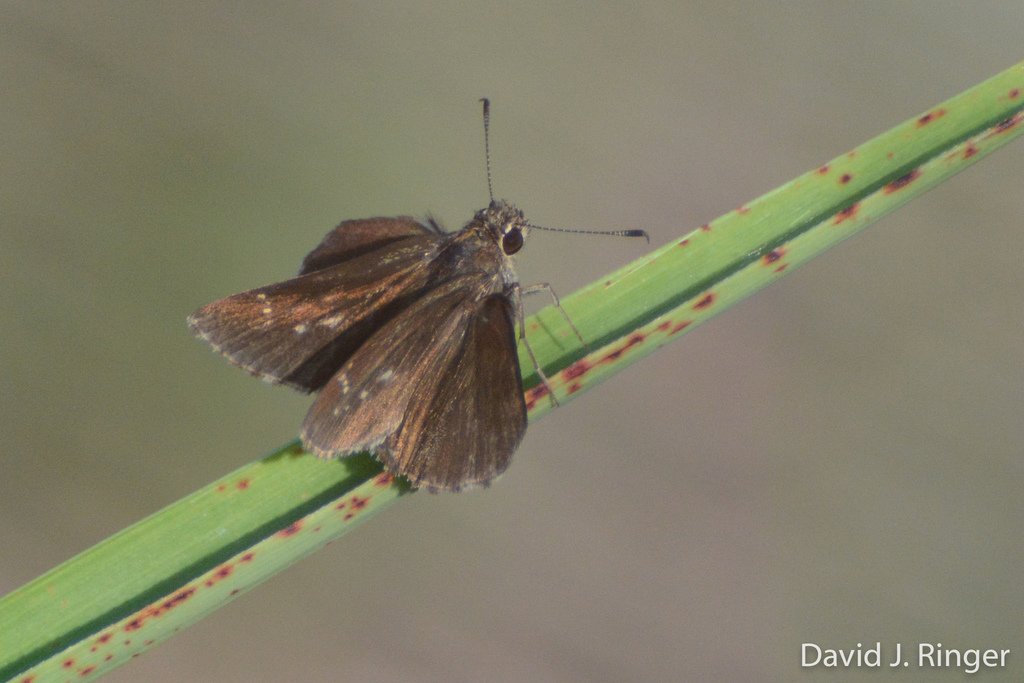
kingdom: Animalia
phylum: Arthropoda
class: Insecta
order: Lepidoptera
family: Hesperiidae
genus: Mastor
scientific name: Mastor celia
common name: Bell's Roadside-Skipper
